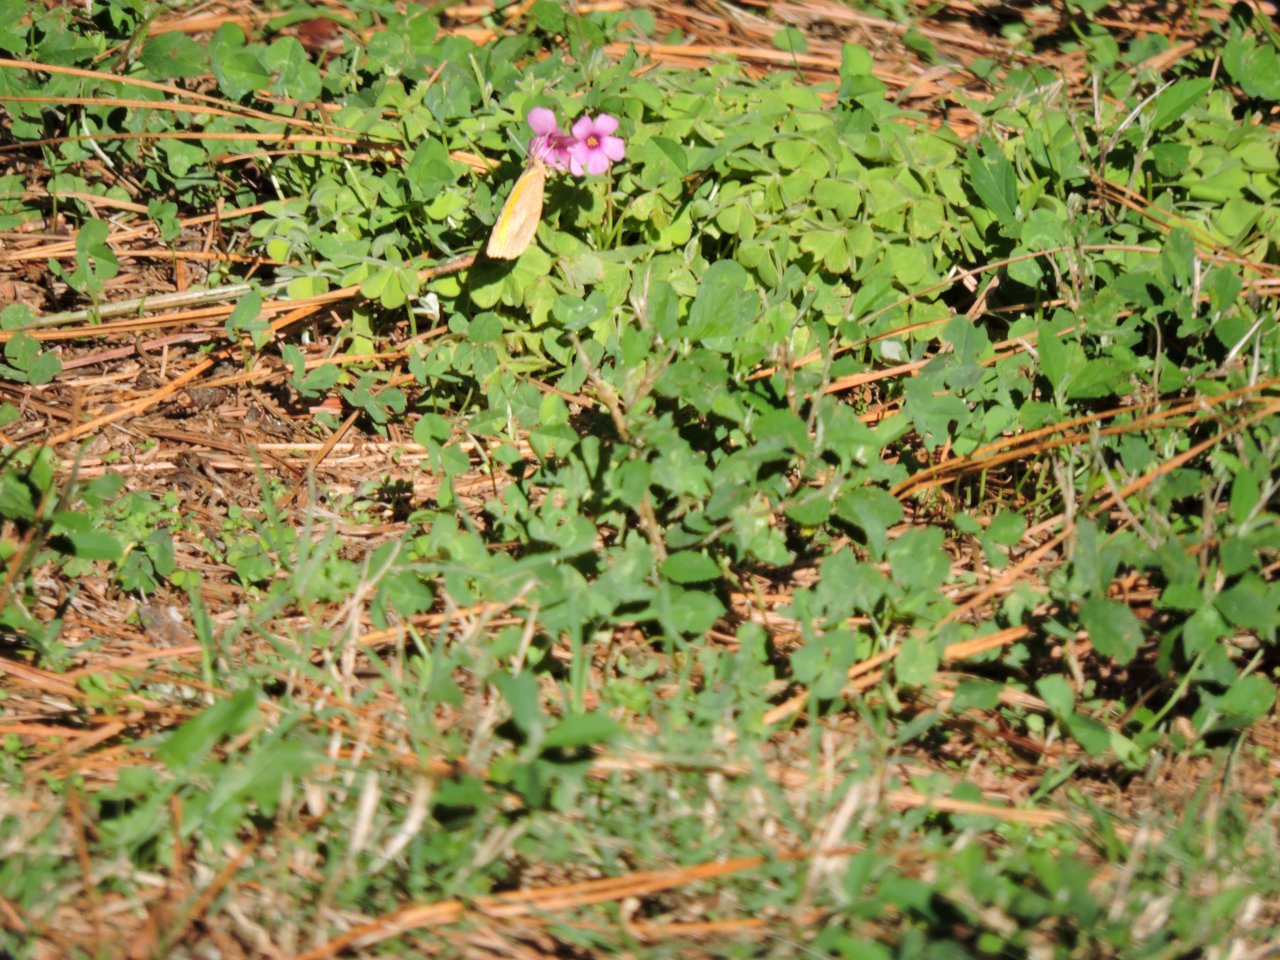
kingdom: Animalia
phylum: Arthropoda
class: Insecta
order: Lepidoptera
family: Pieridae
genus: Abaeis
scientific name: Abaeis nicippe
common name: Sleepy Orange
